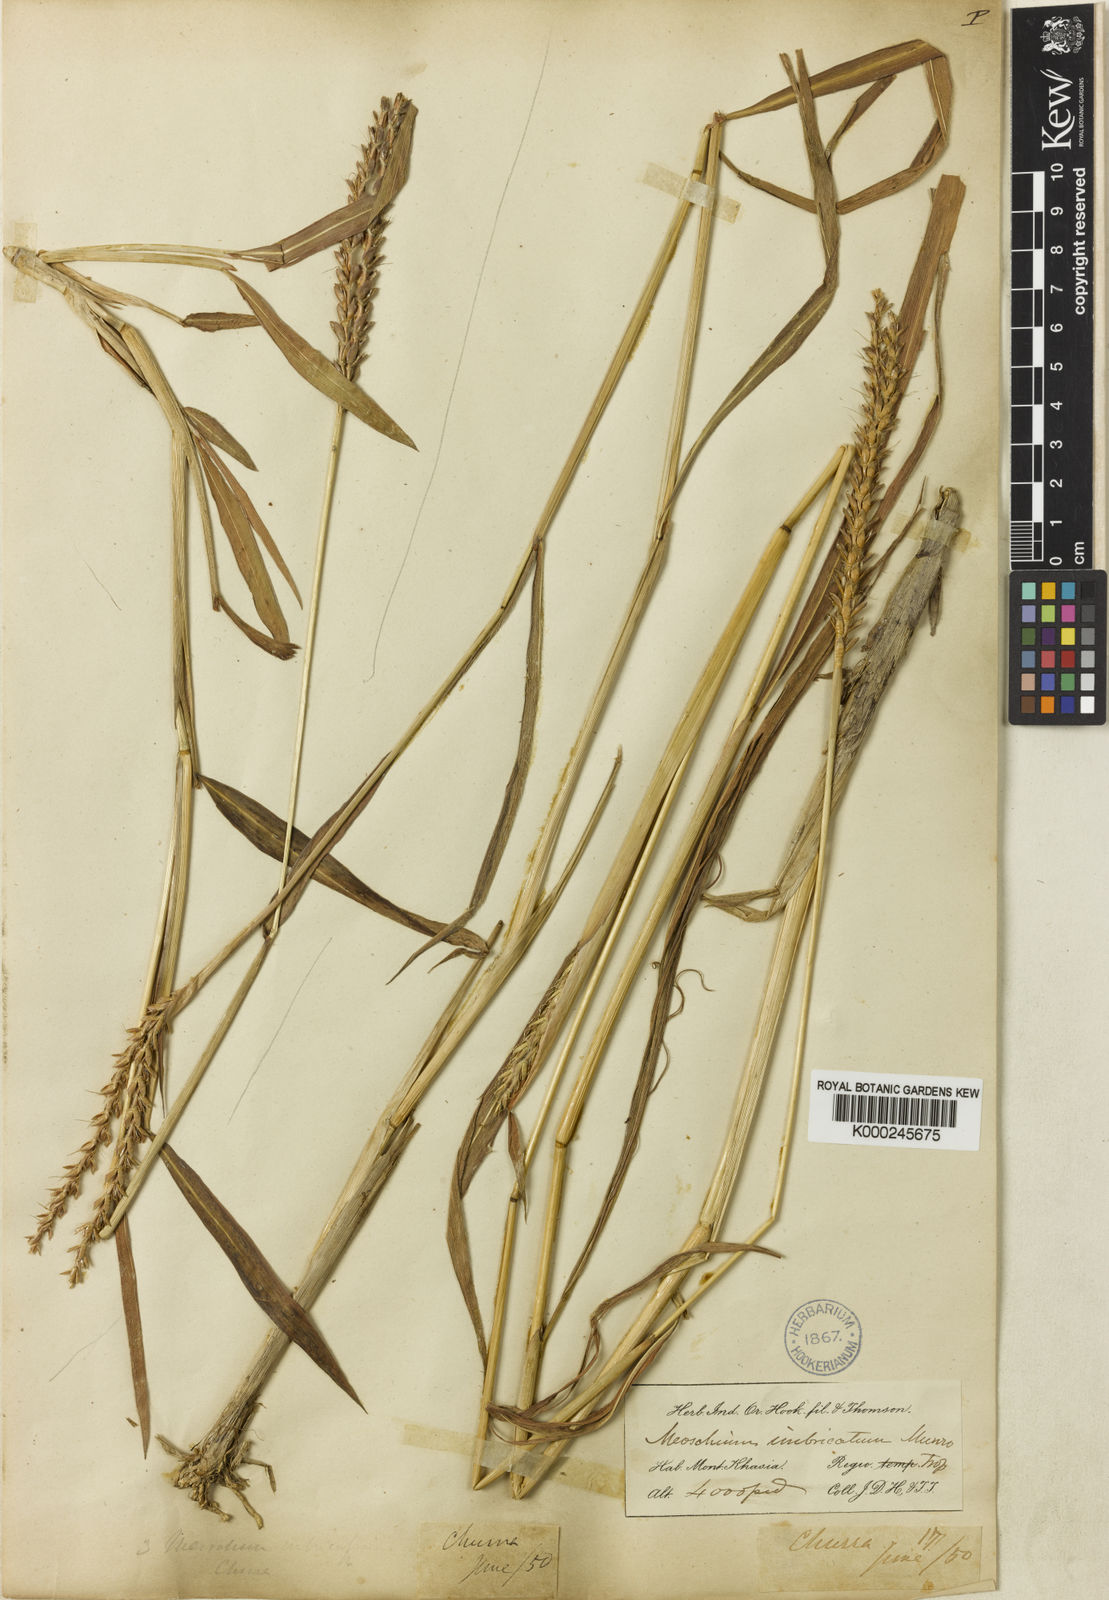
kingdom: Plantae
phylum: Tracheophyta
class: Liliopsida
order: Poales
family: Poaceae
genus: Ischaemum
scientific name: Ischaemum barbatum
